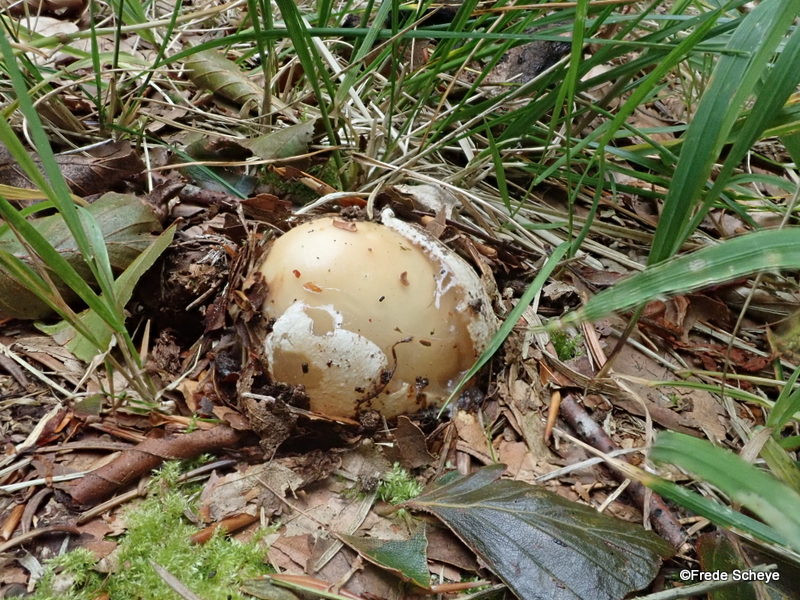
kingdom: Fungi
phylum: Basidiomycota
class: Agaricomycetes
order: Phallales
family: Phallaceae
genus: Phallus
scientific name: Phallus impudicus
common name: almindelig stinksvamp
